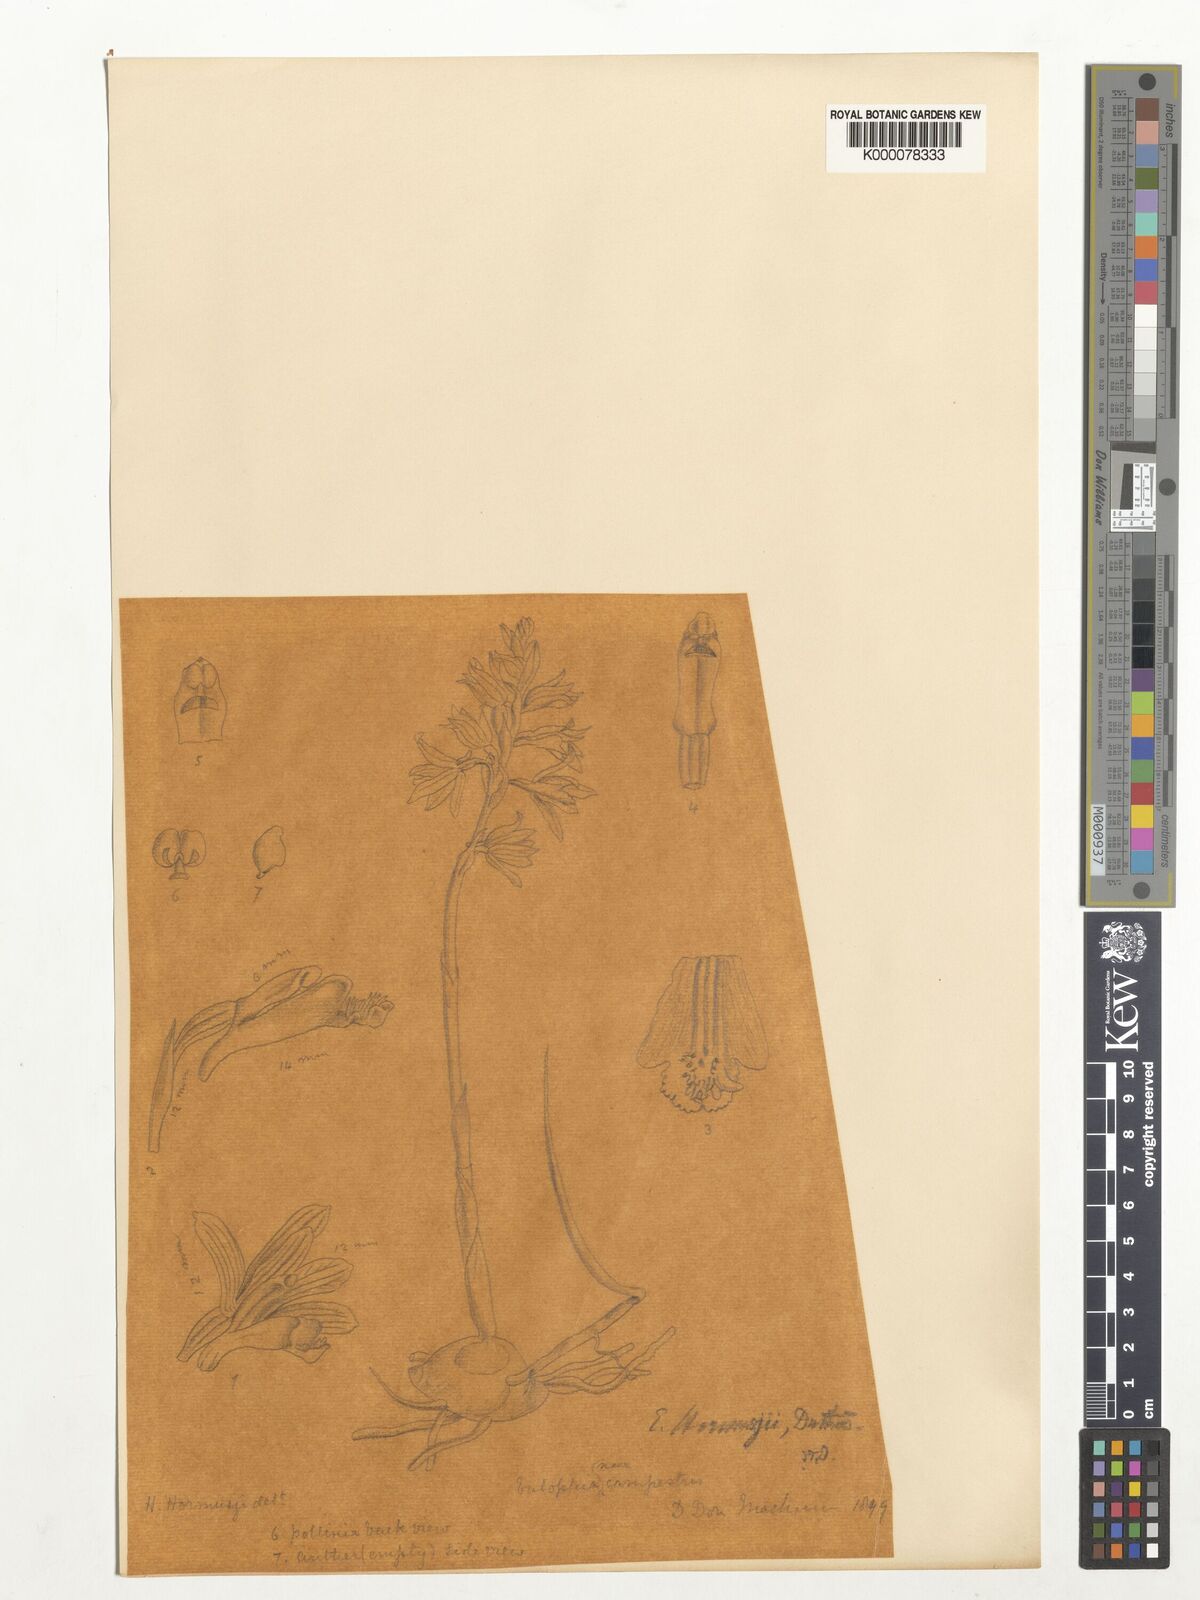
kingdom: Plantae
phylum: Tracheophyta
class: Liliopsida
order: Asparagales
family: Orchidaceae
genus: Eulophia
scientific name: Eulophia dabia
